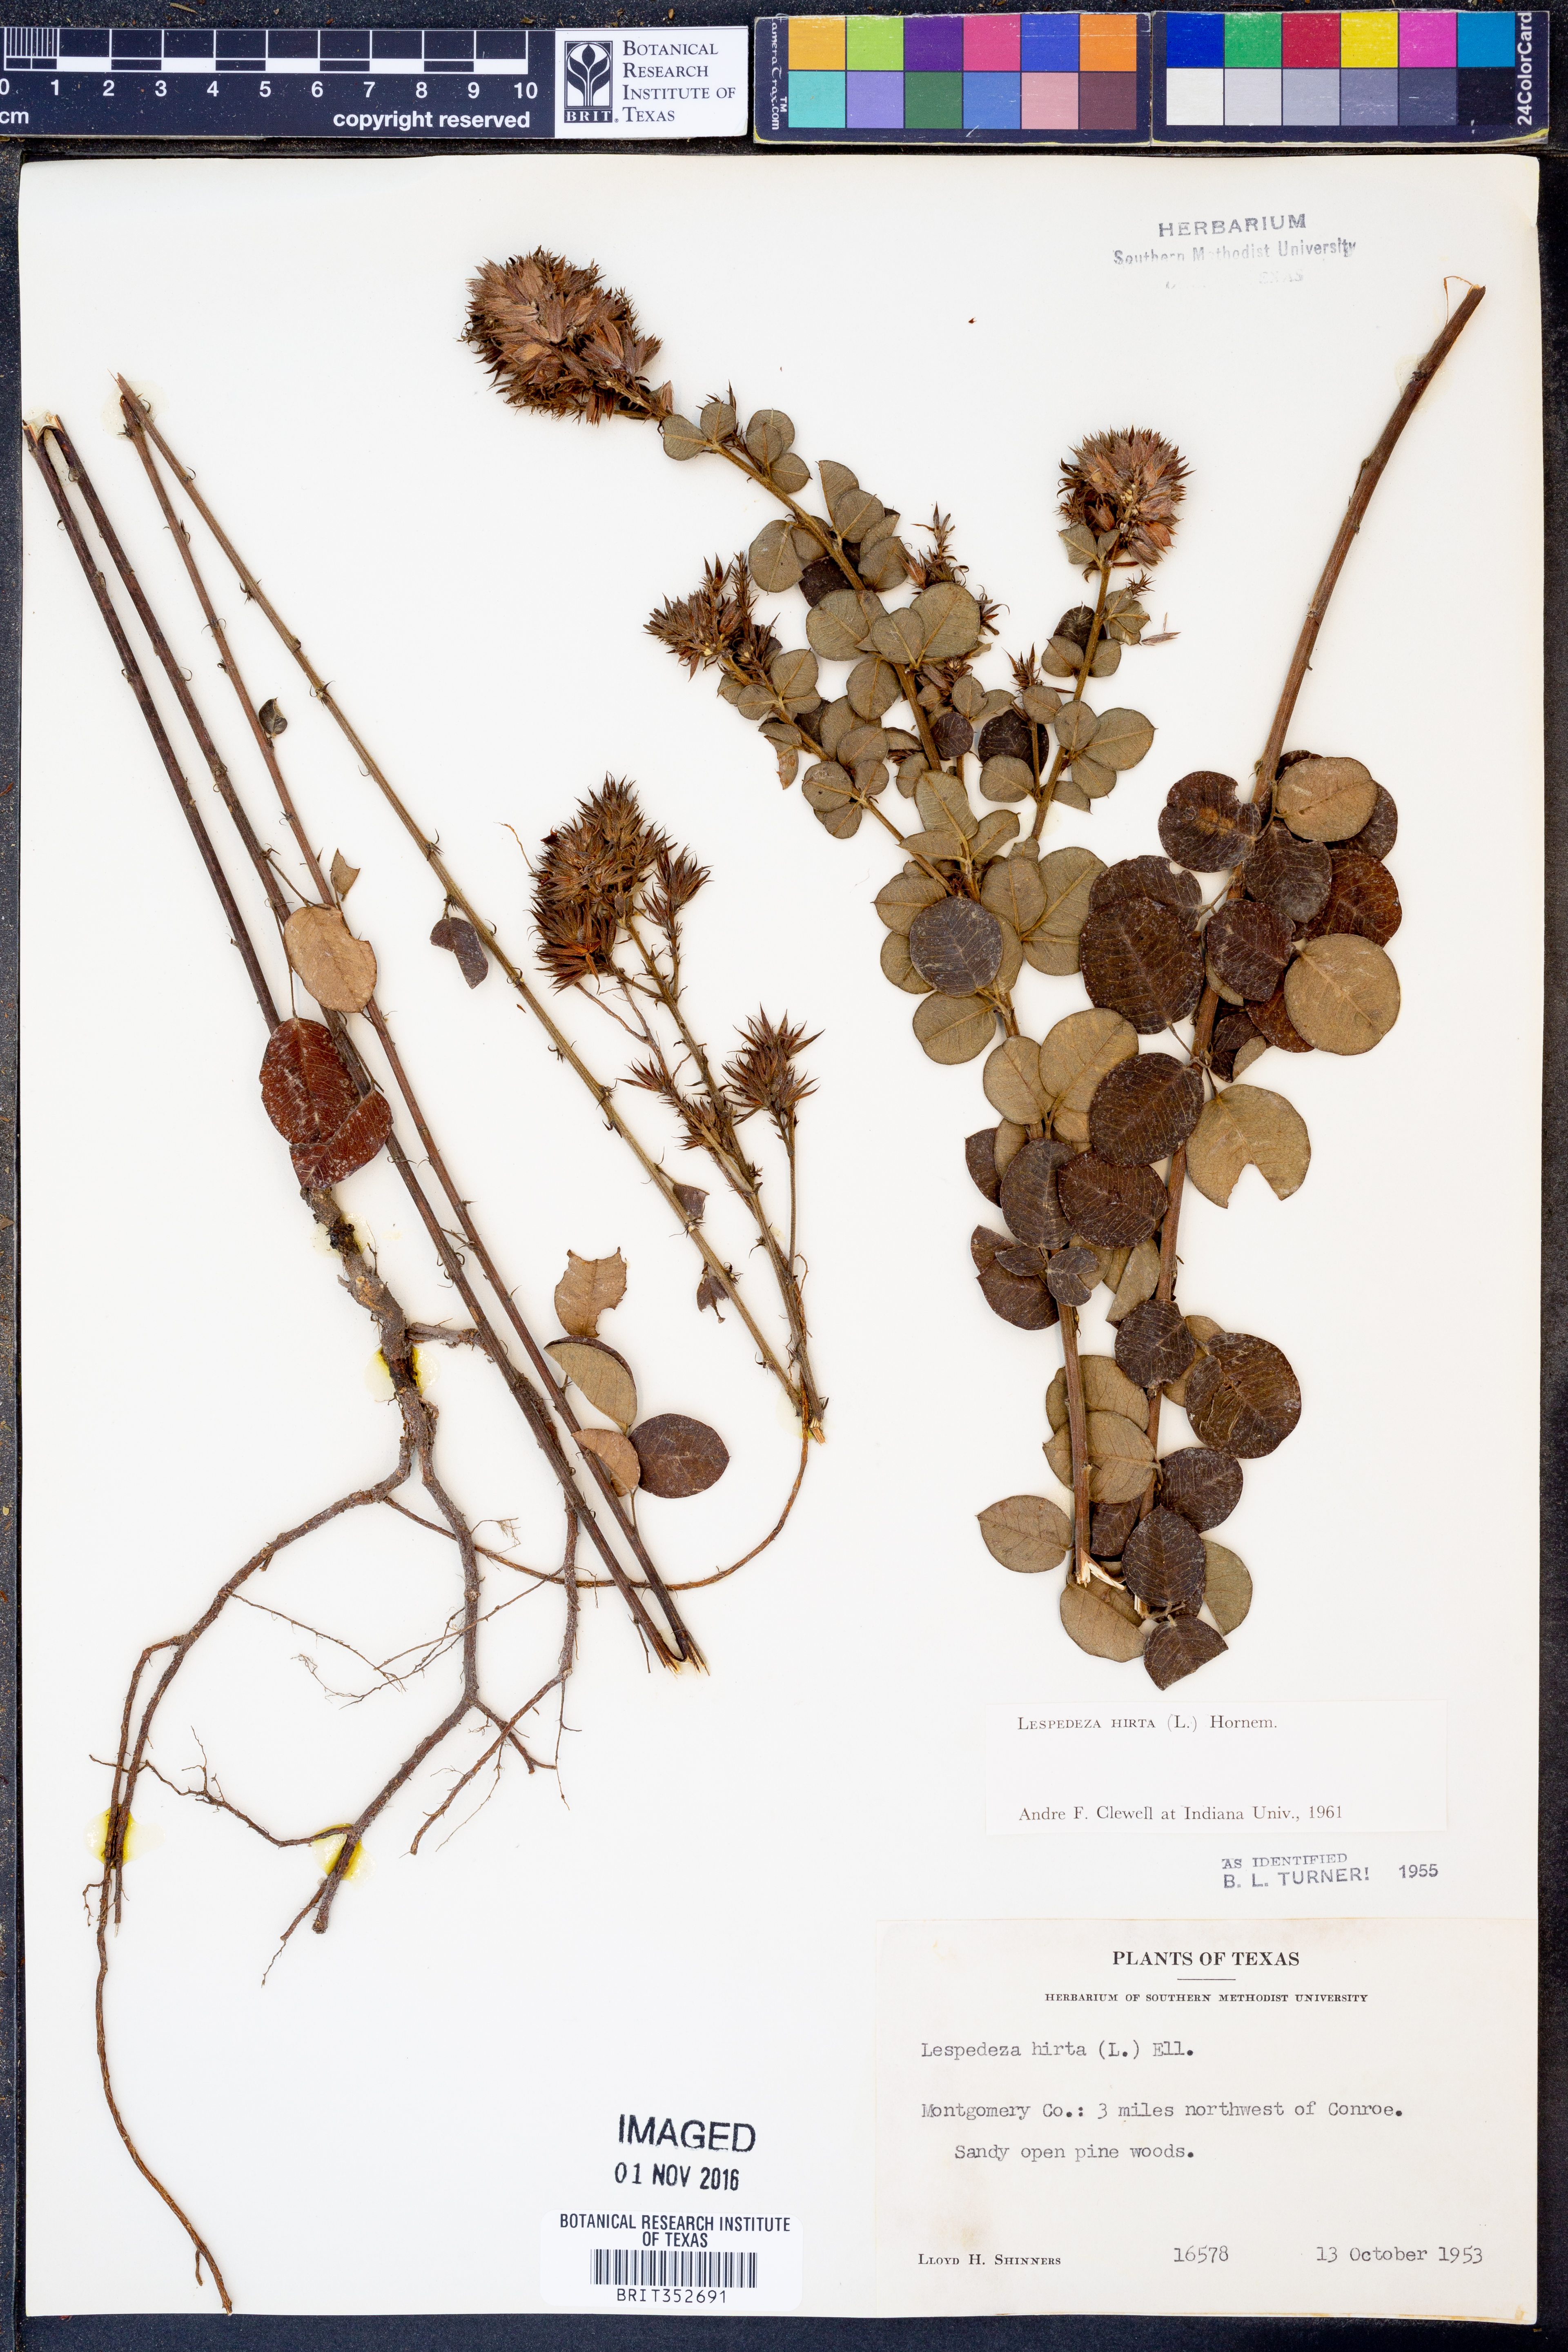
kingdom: Plantae
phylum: Tracheophyta
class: Magnoliopsida
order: Fabales
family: Fabaceae
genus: Lespedeza
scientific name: Lespedeza hirta
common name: Hairy lespedeza
